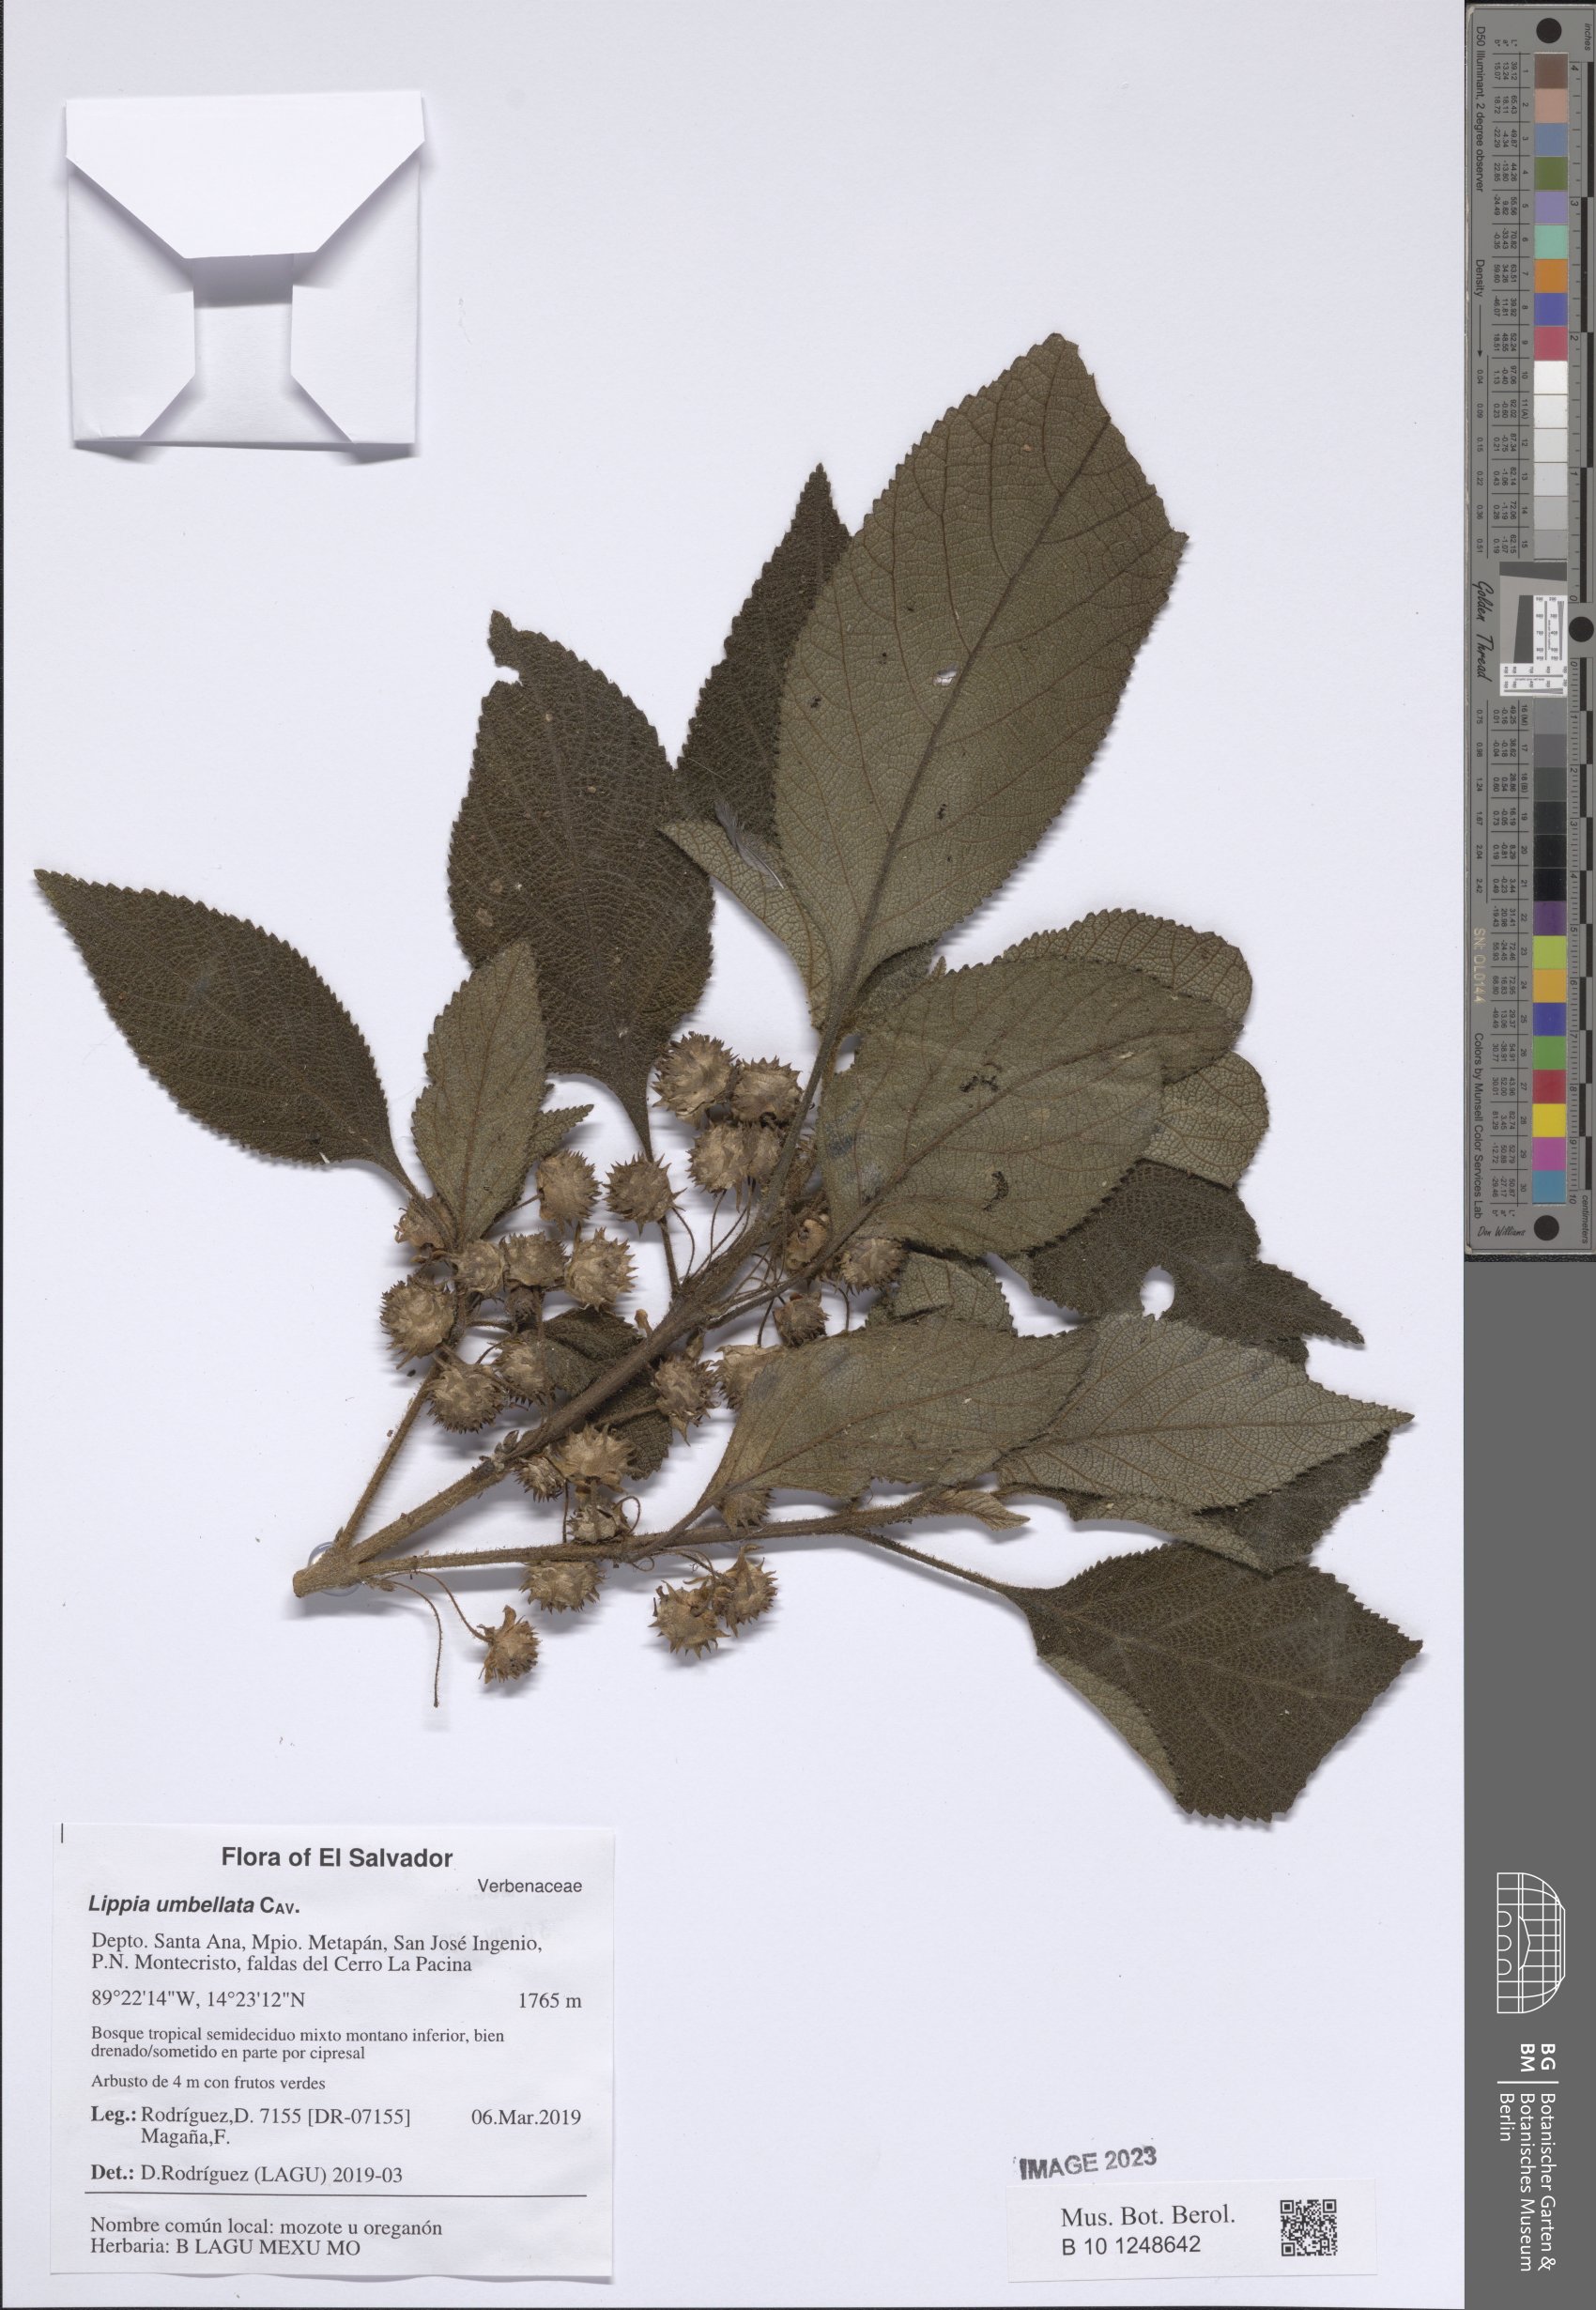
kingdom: Plantae
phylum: Tracheophyta
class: Magnoliopsida
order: Lamiales
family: Verbenaceae
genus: Lippia
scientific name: Lippia umbellata
